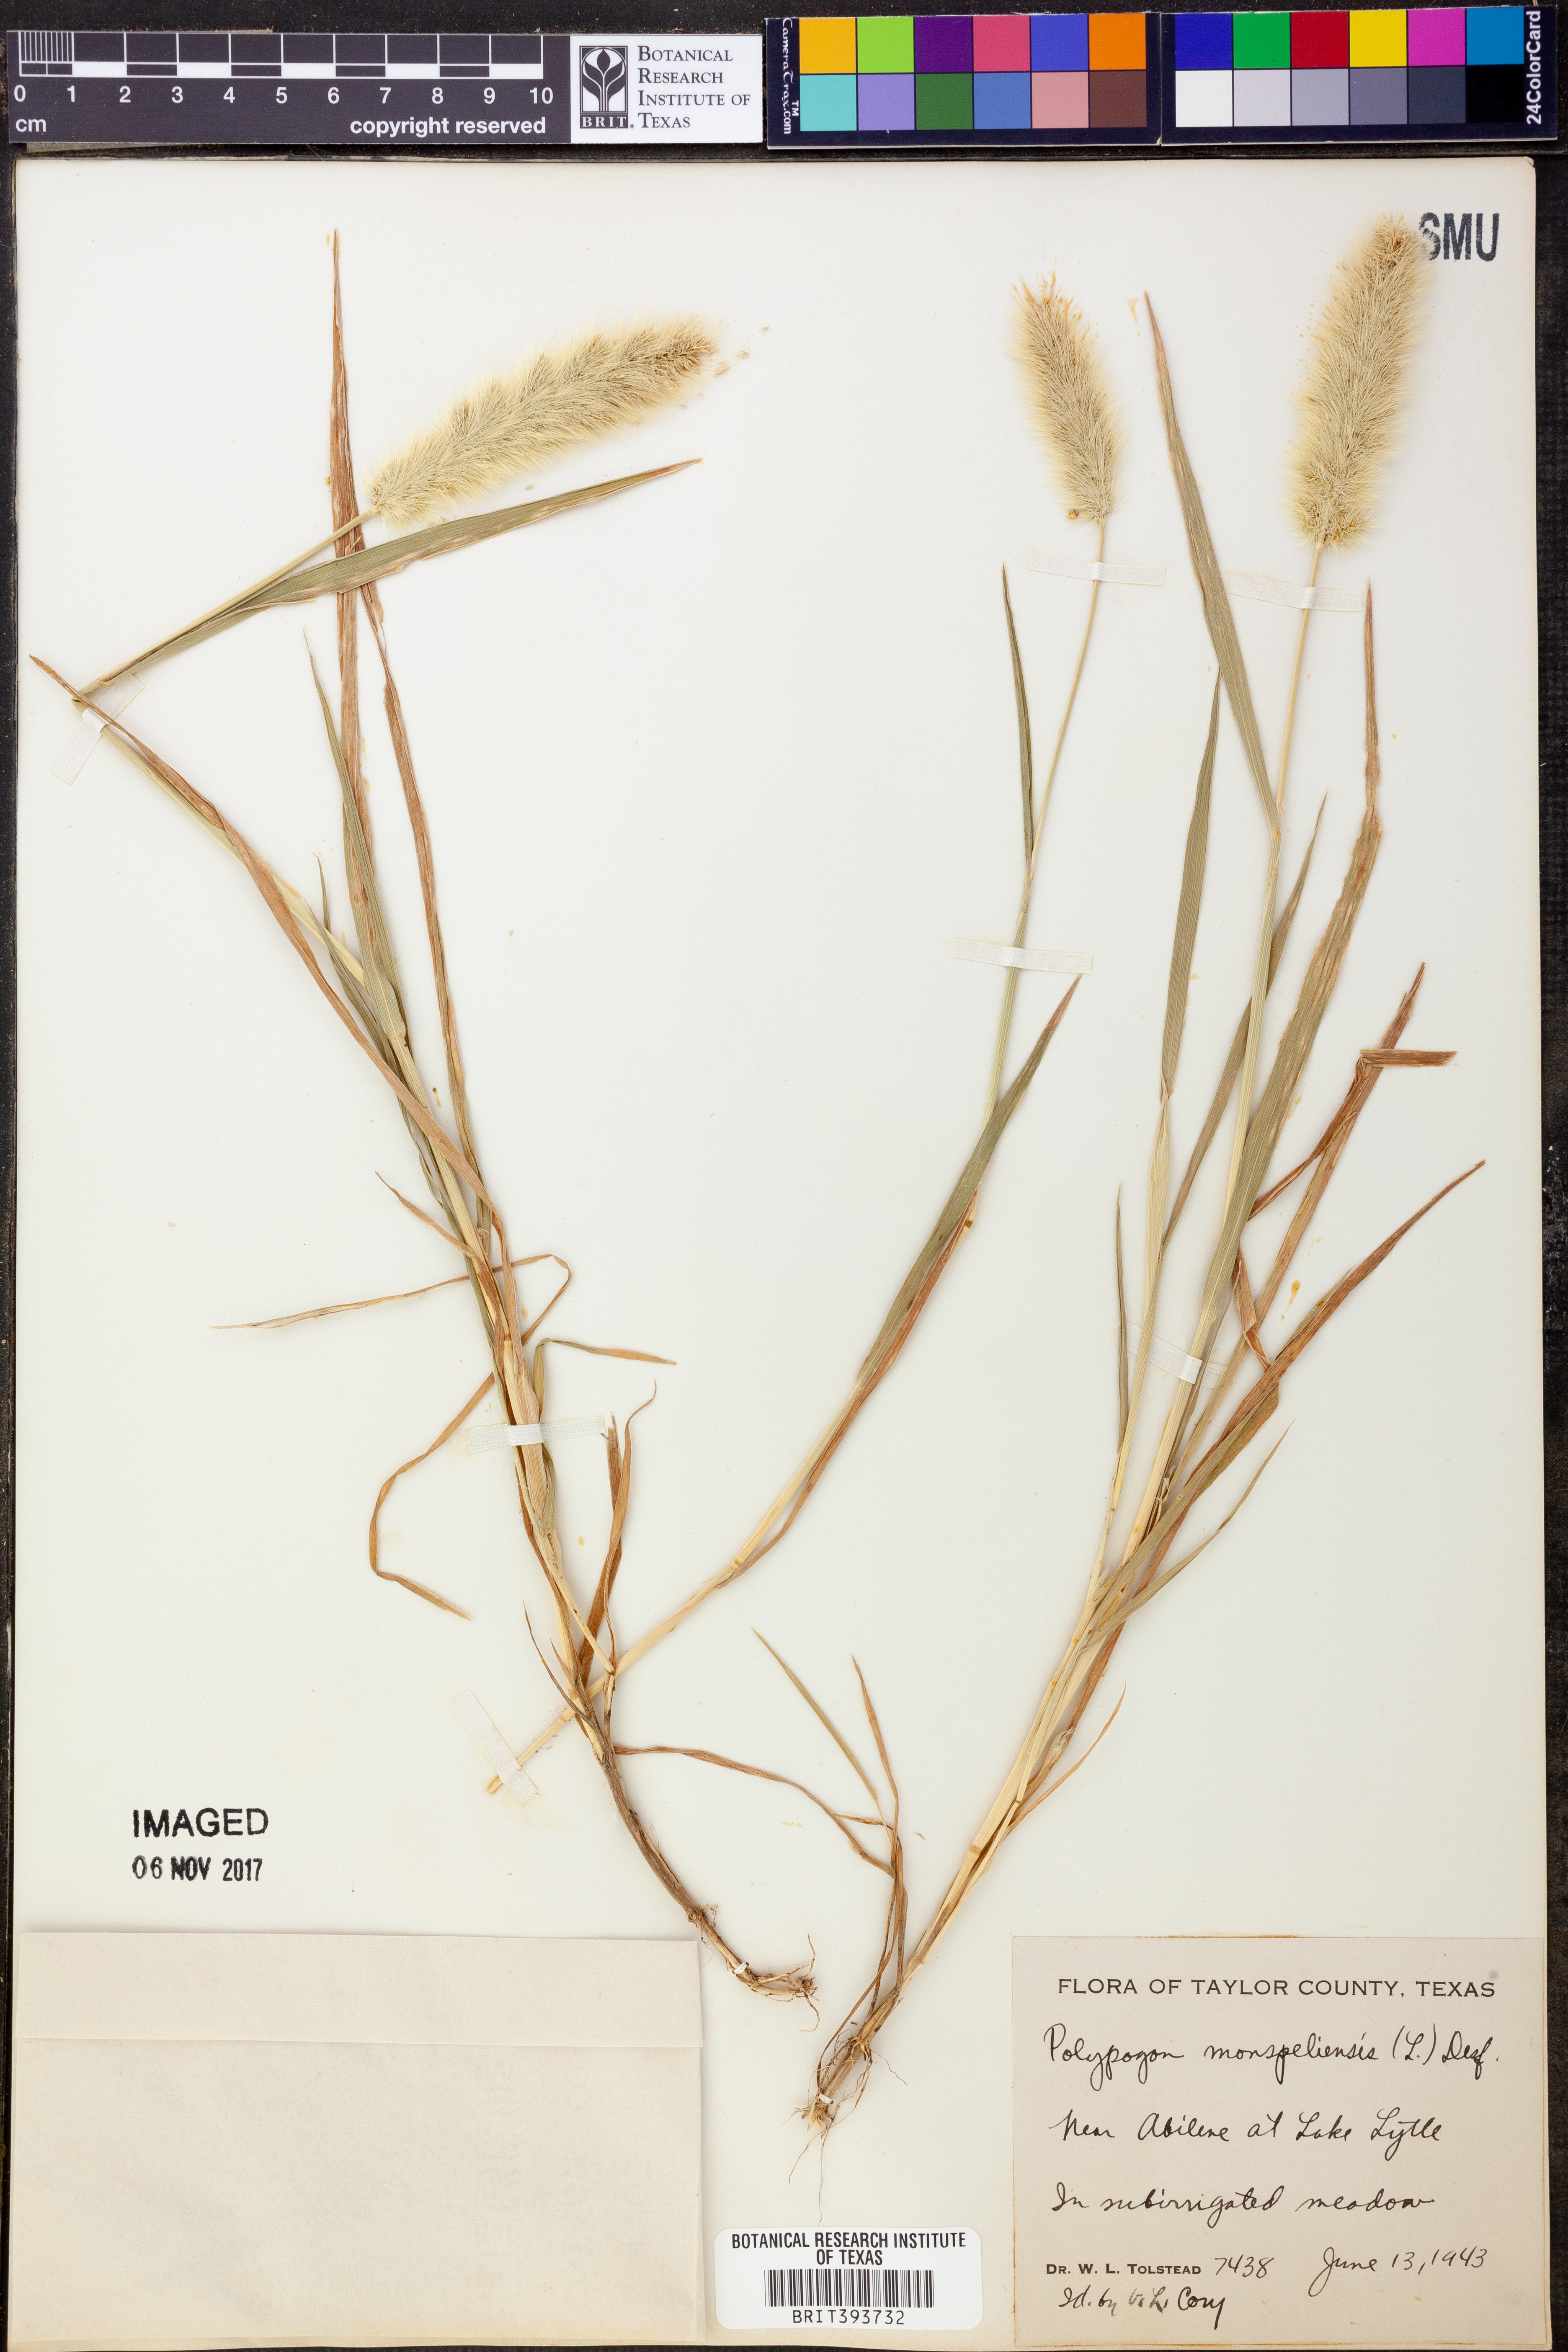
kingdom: Plantae
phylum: Tracheophyta
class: Liliopsida
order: Poales
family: Poaceae
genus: Polypogon
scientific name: Polypogon monspeliensis
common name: Annual rabbitsfoot grass
